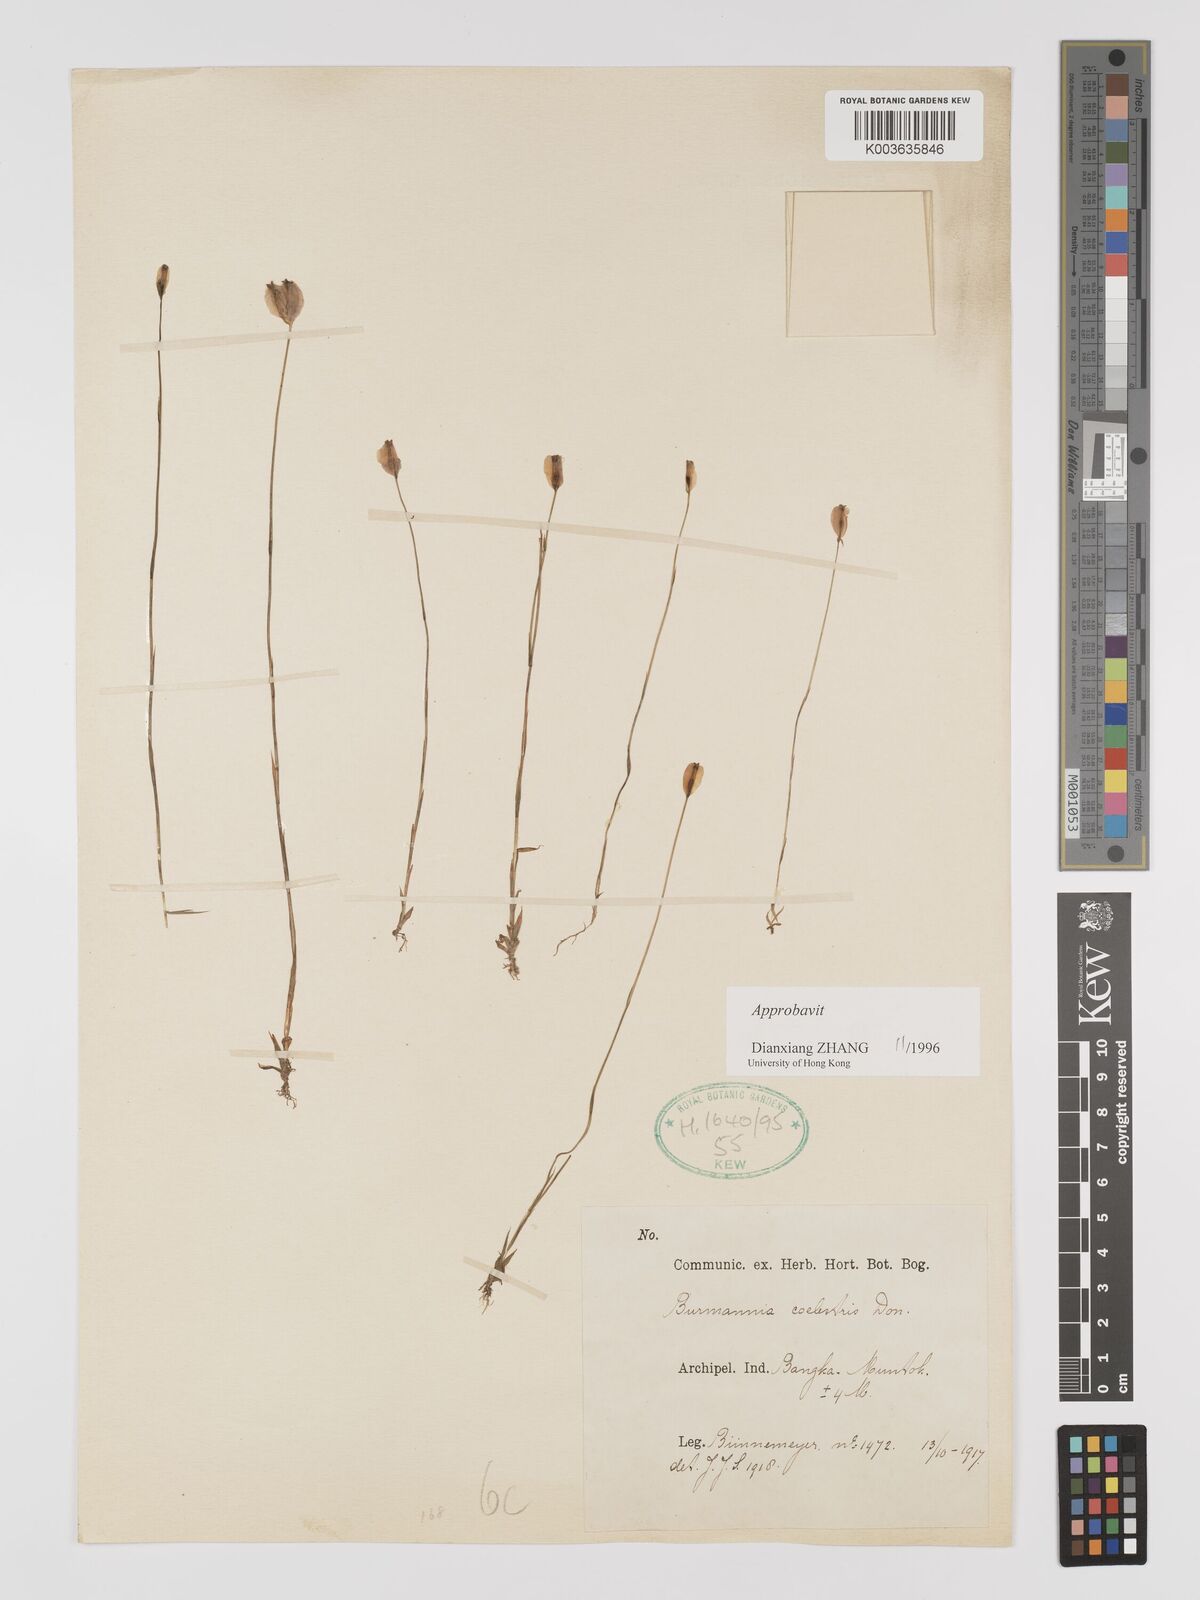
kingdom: Plantae
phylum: Tracheophyta
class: Liliopsida
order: Dioscoreales
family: Burmanniaceae
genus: Burmannia
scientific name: Burmannia disticha
